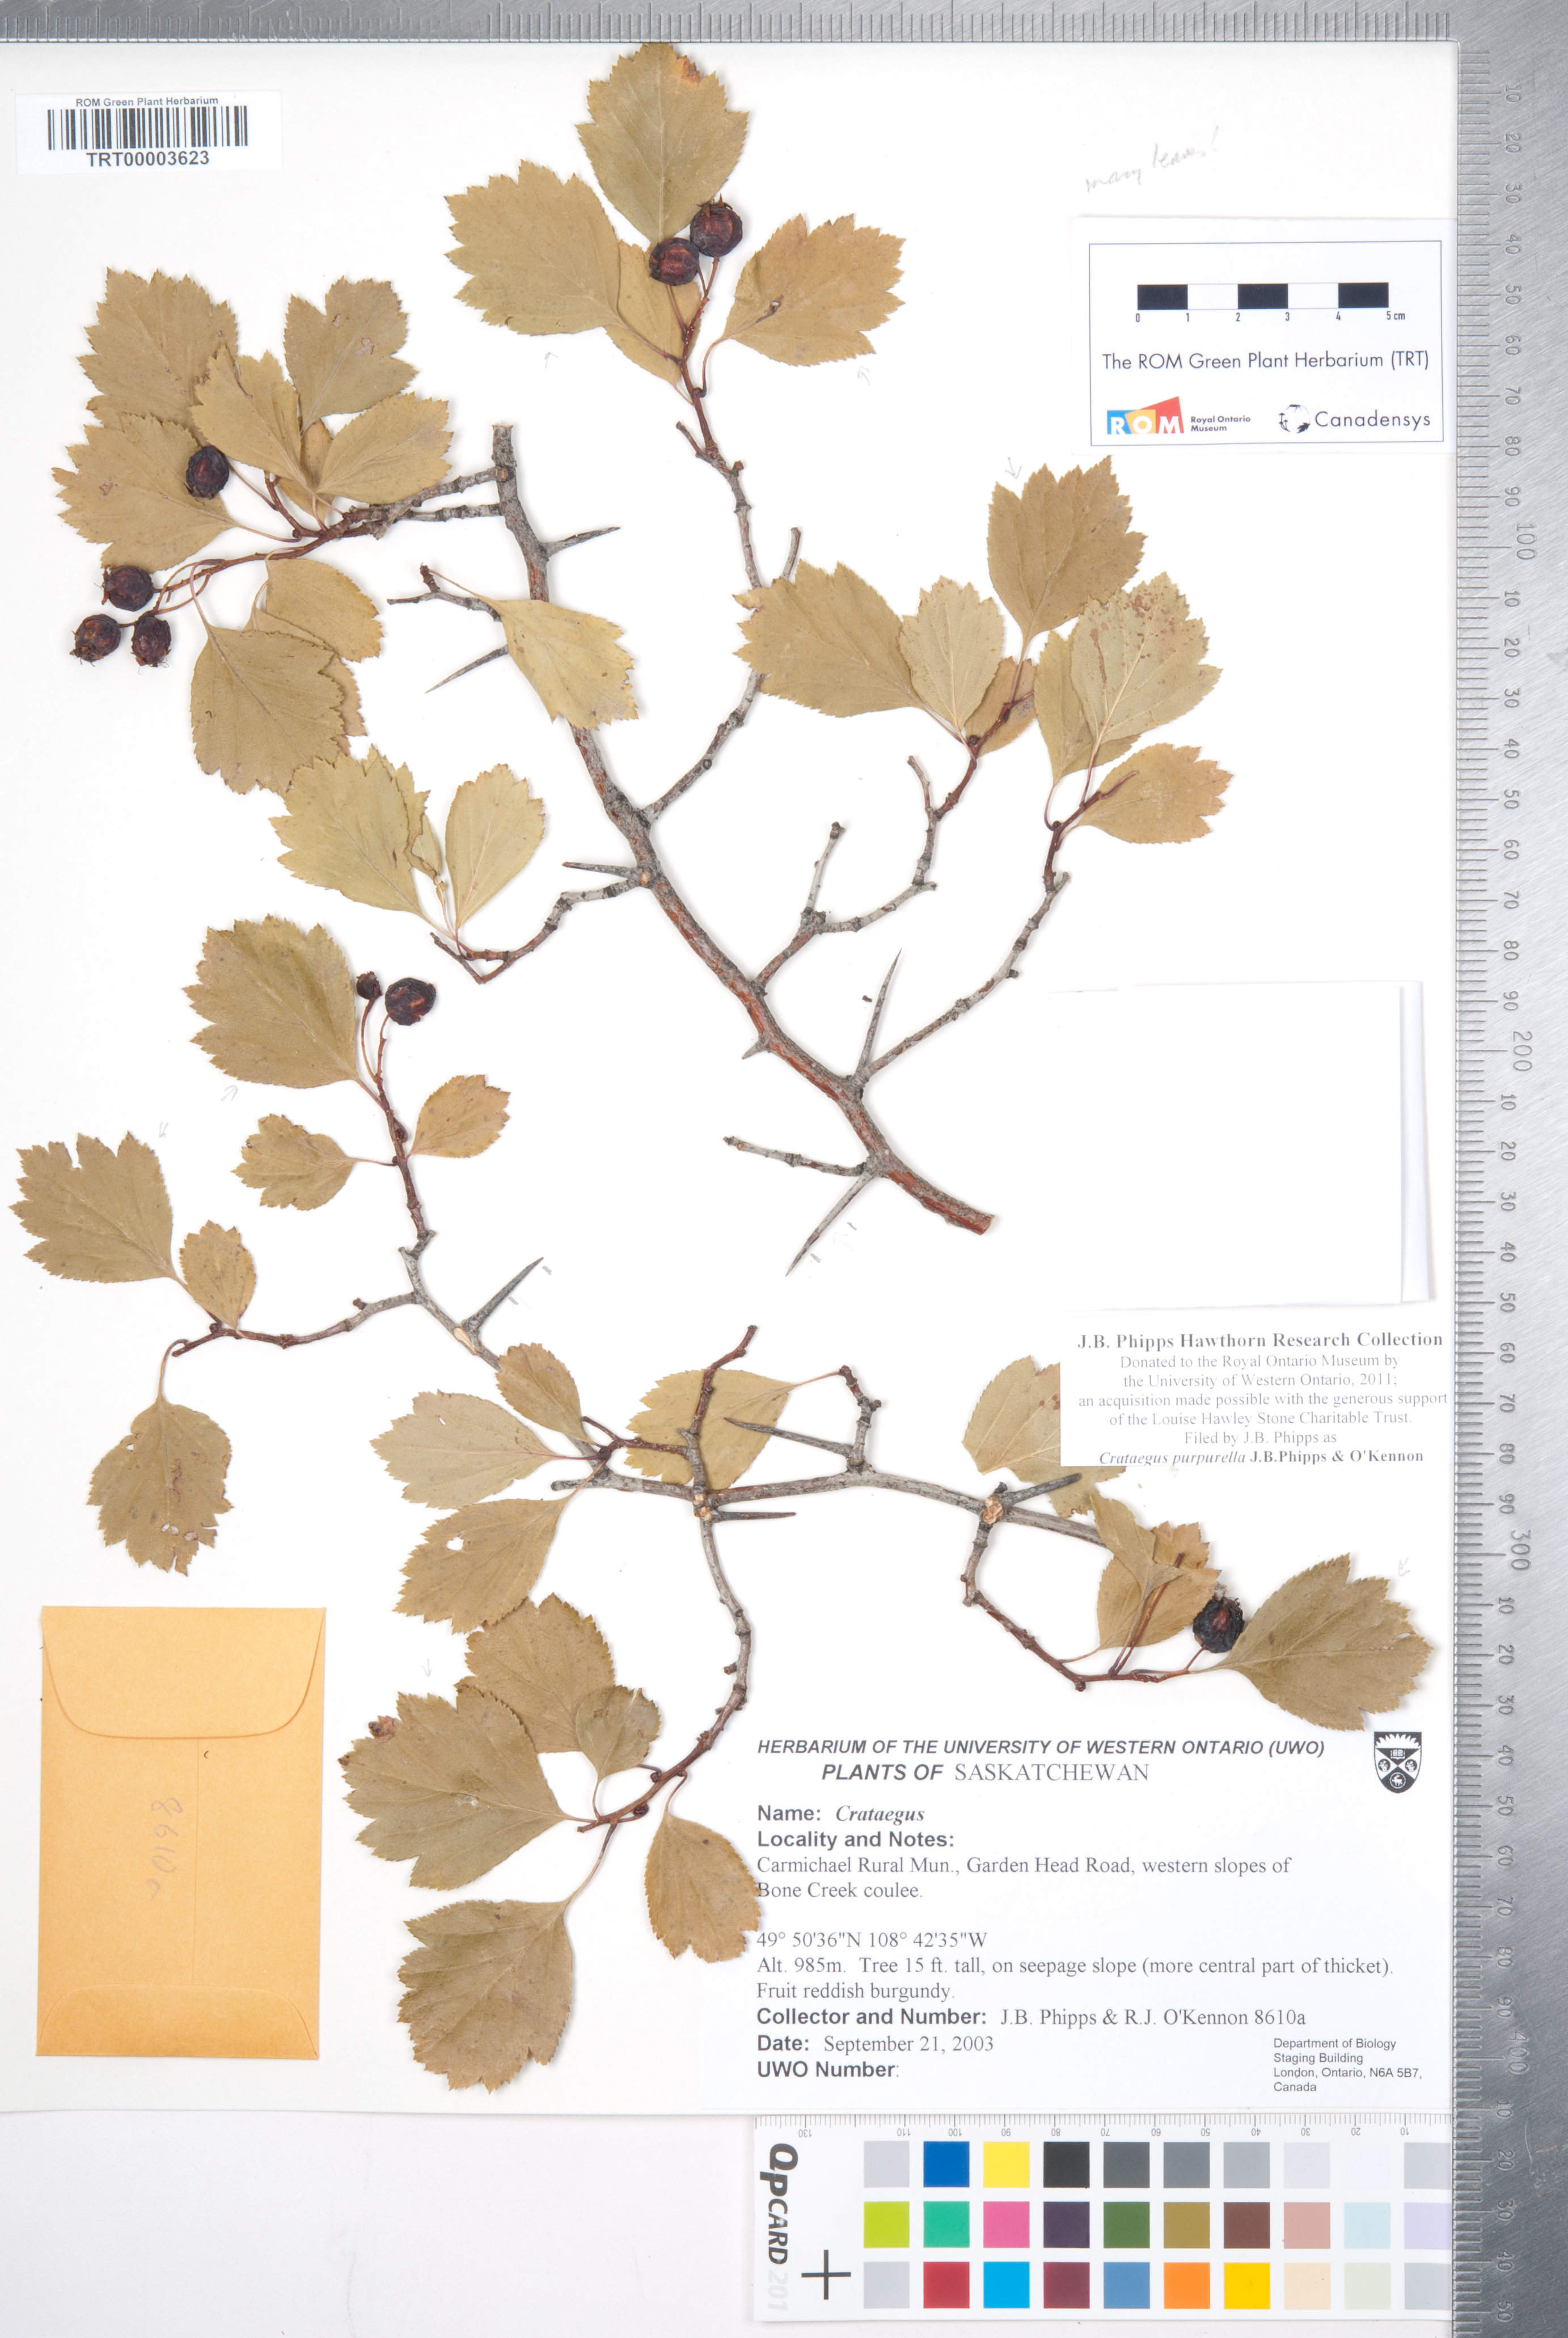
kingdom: Plantae
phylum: Tracheophyta
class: Magnoliopsida
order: Rosales
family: Rosaceae
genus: Crataegus
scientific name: Crataegus purpurella
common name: Loch lomond hawthorn
